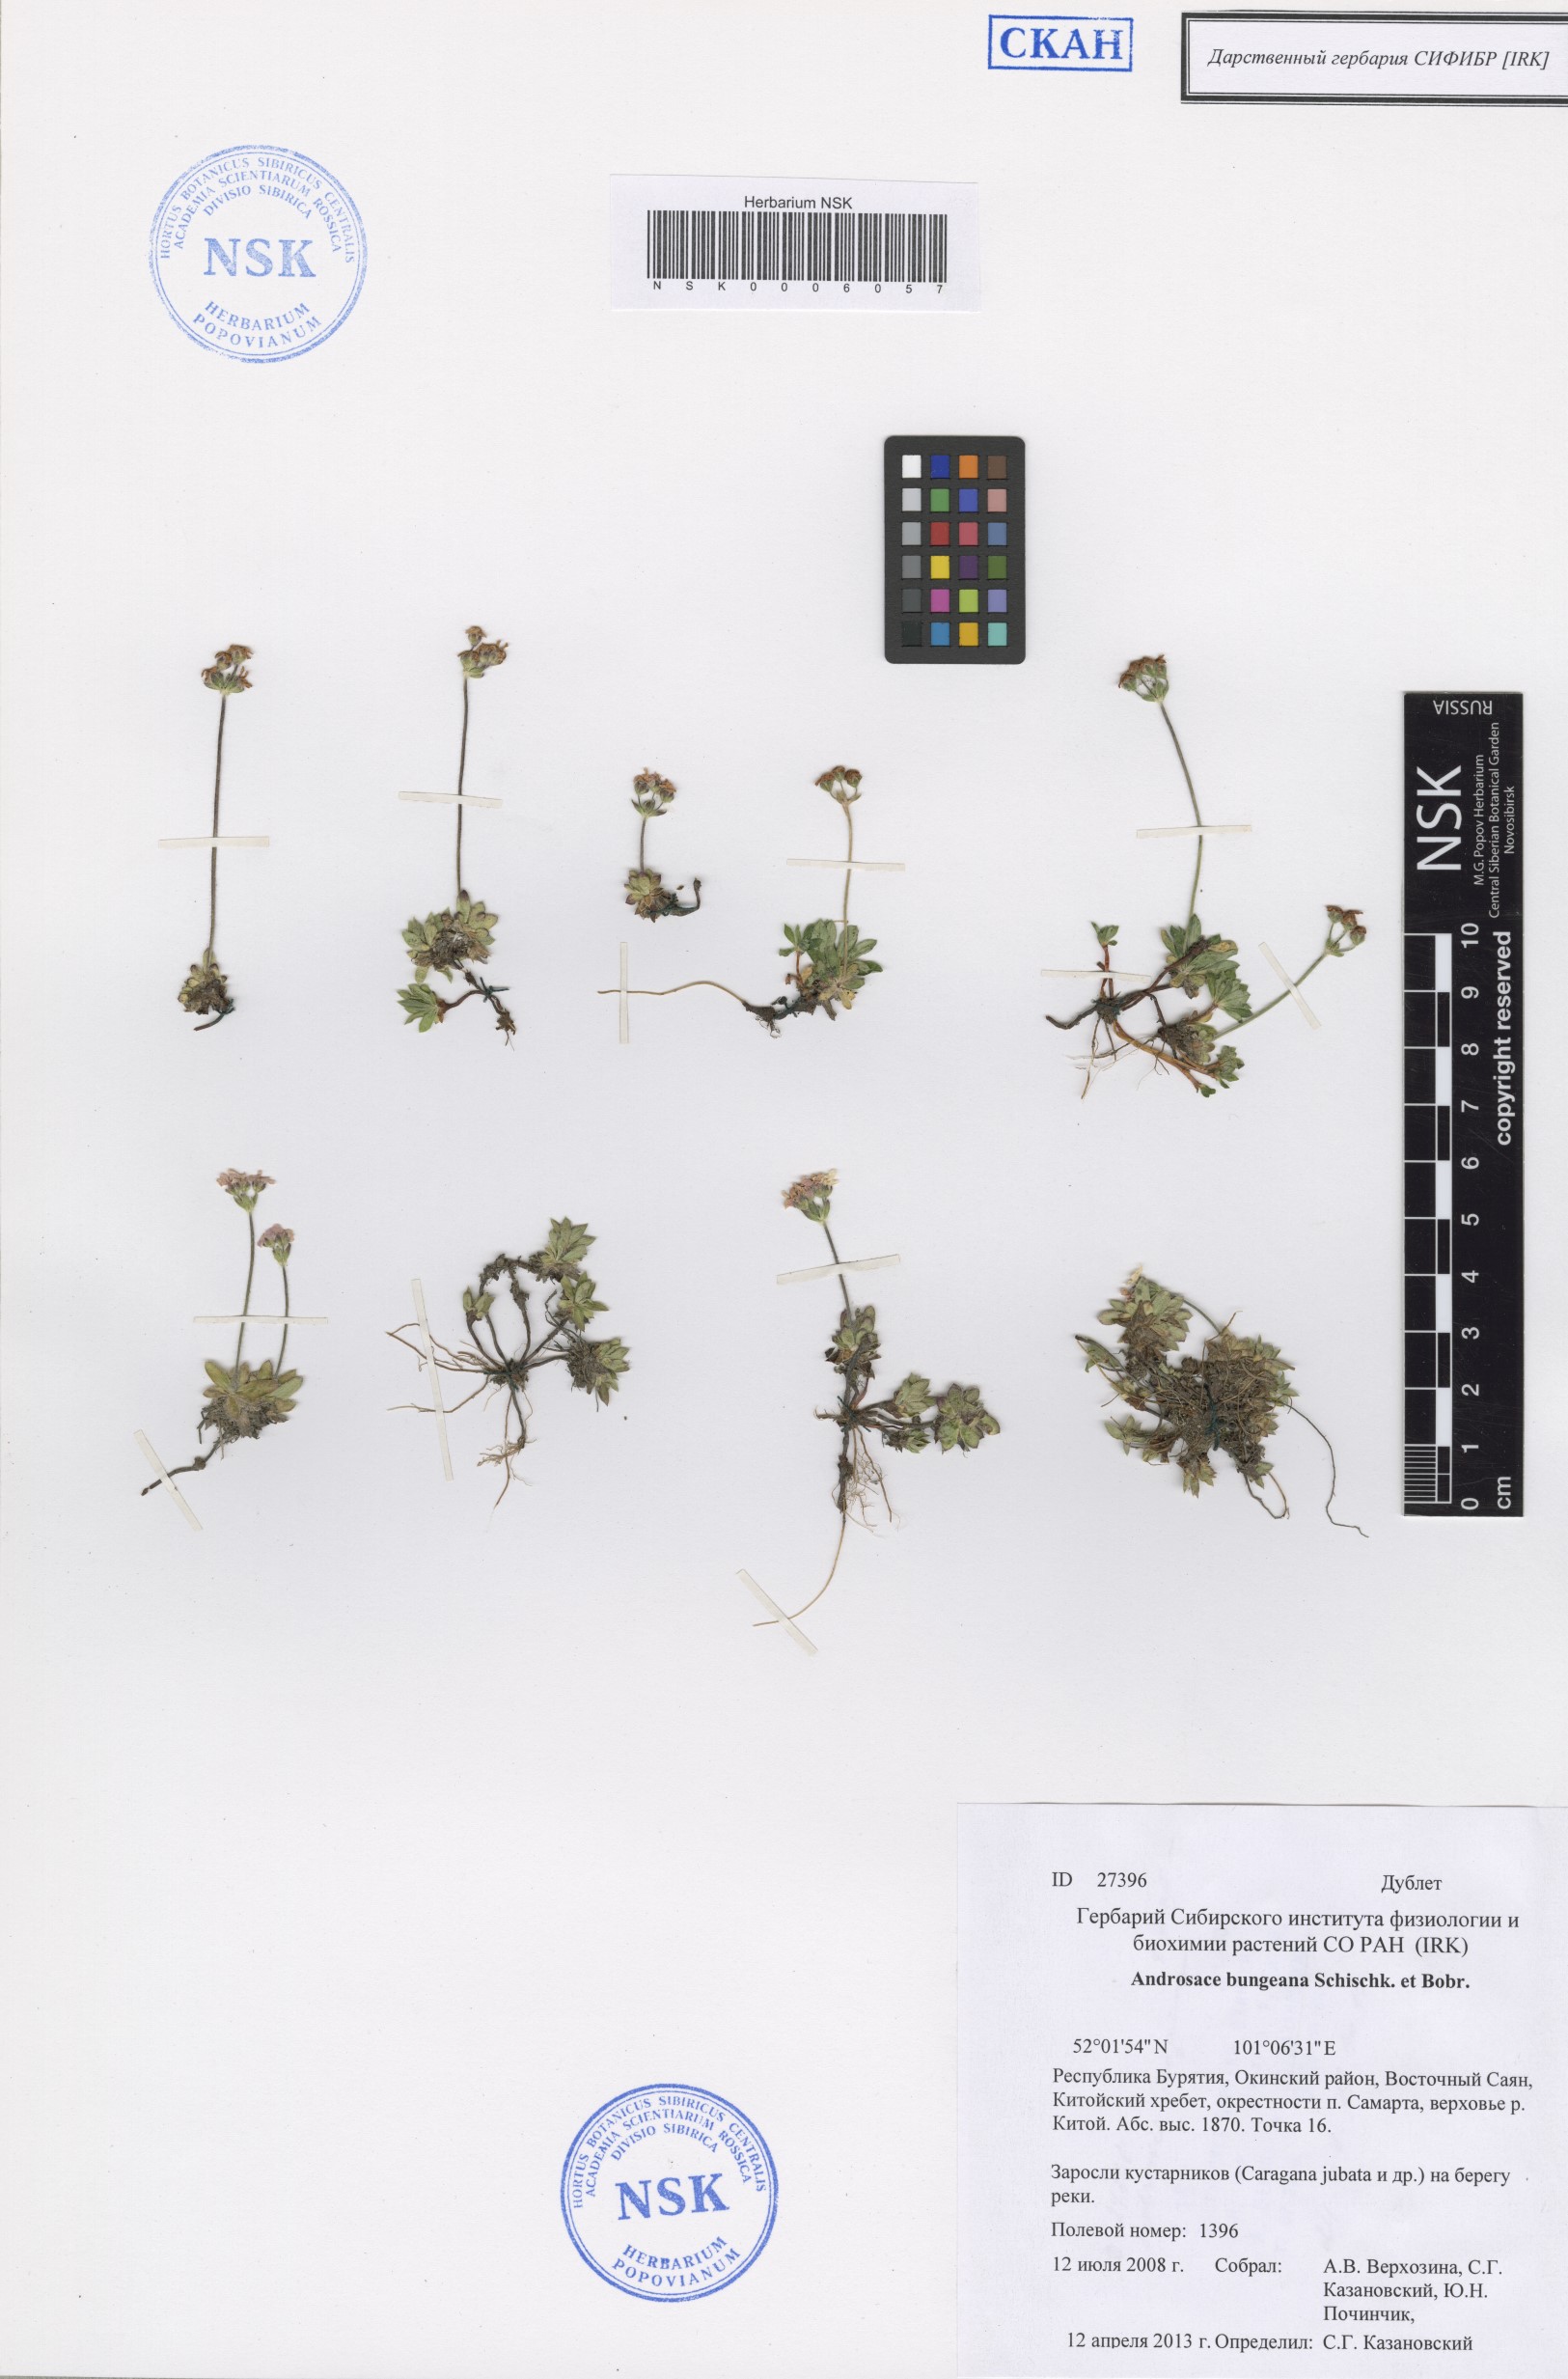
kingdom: Plantae
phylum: Tracheophyta
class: Magnoliopsida
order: Ericales
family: Primulaceae
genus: Androsace
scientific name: Androsace bungeana
